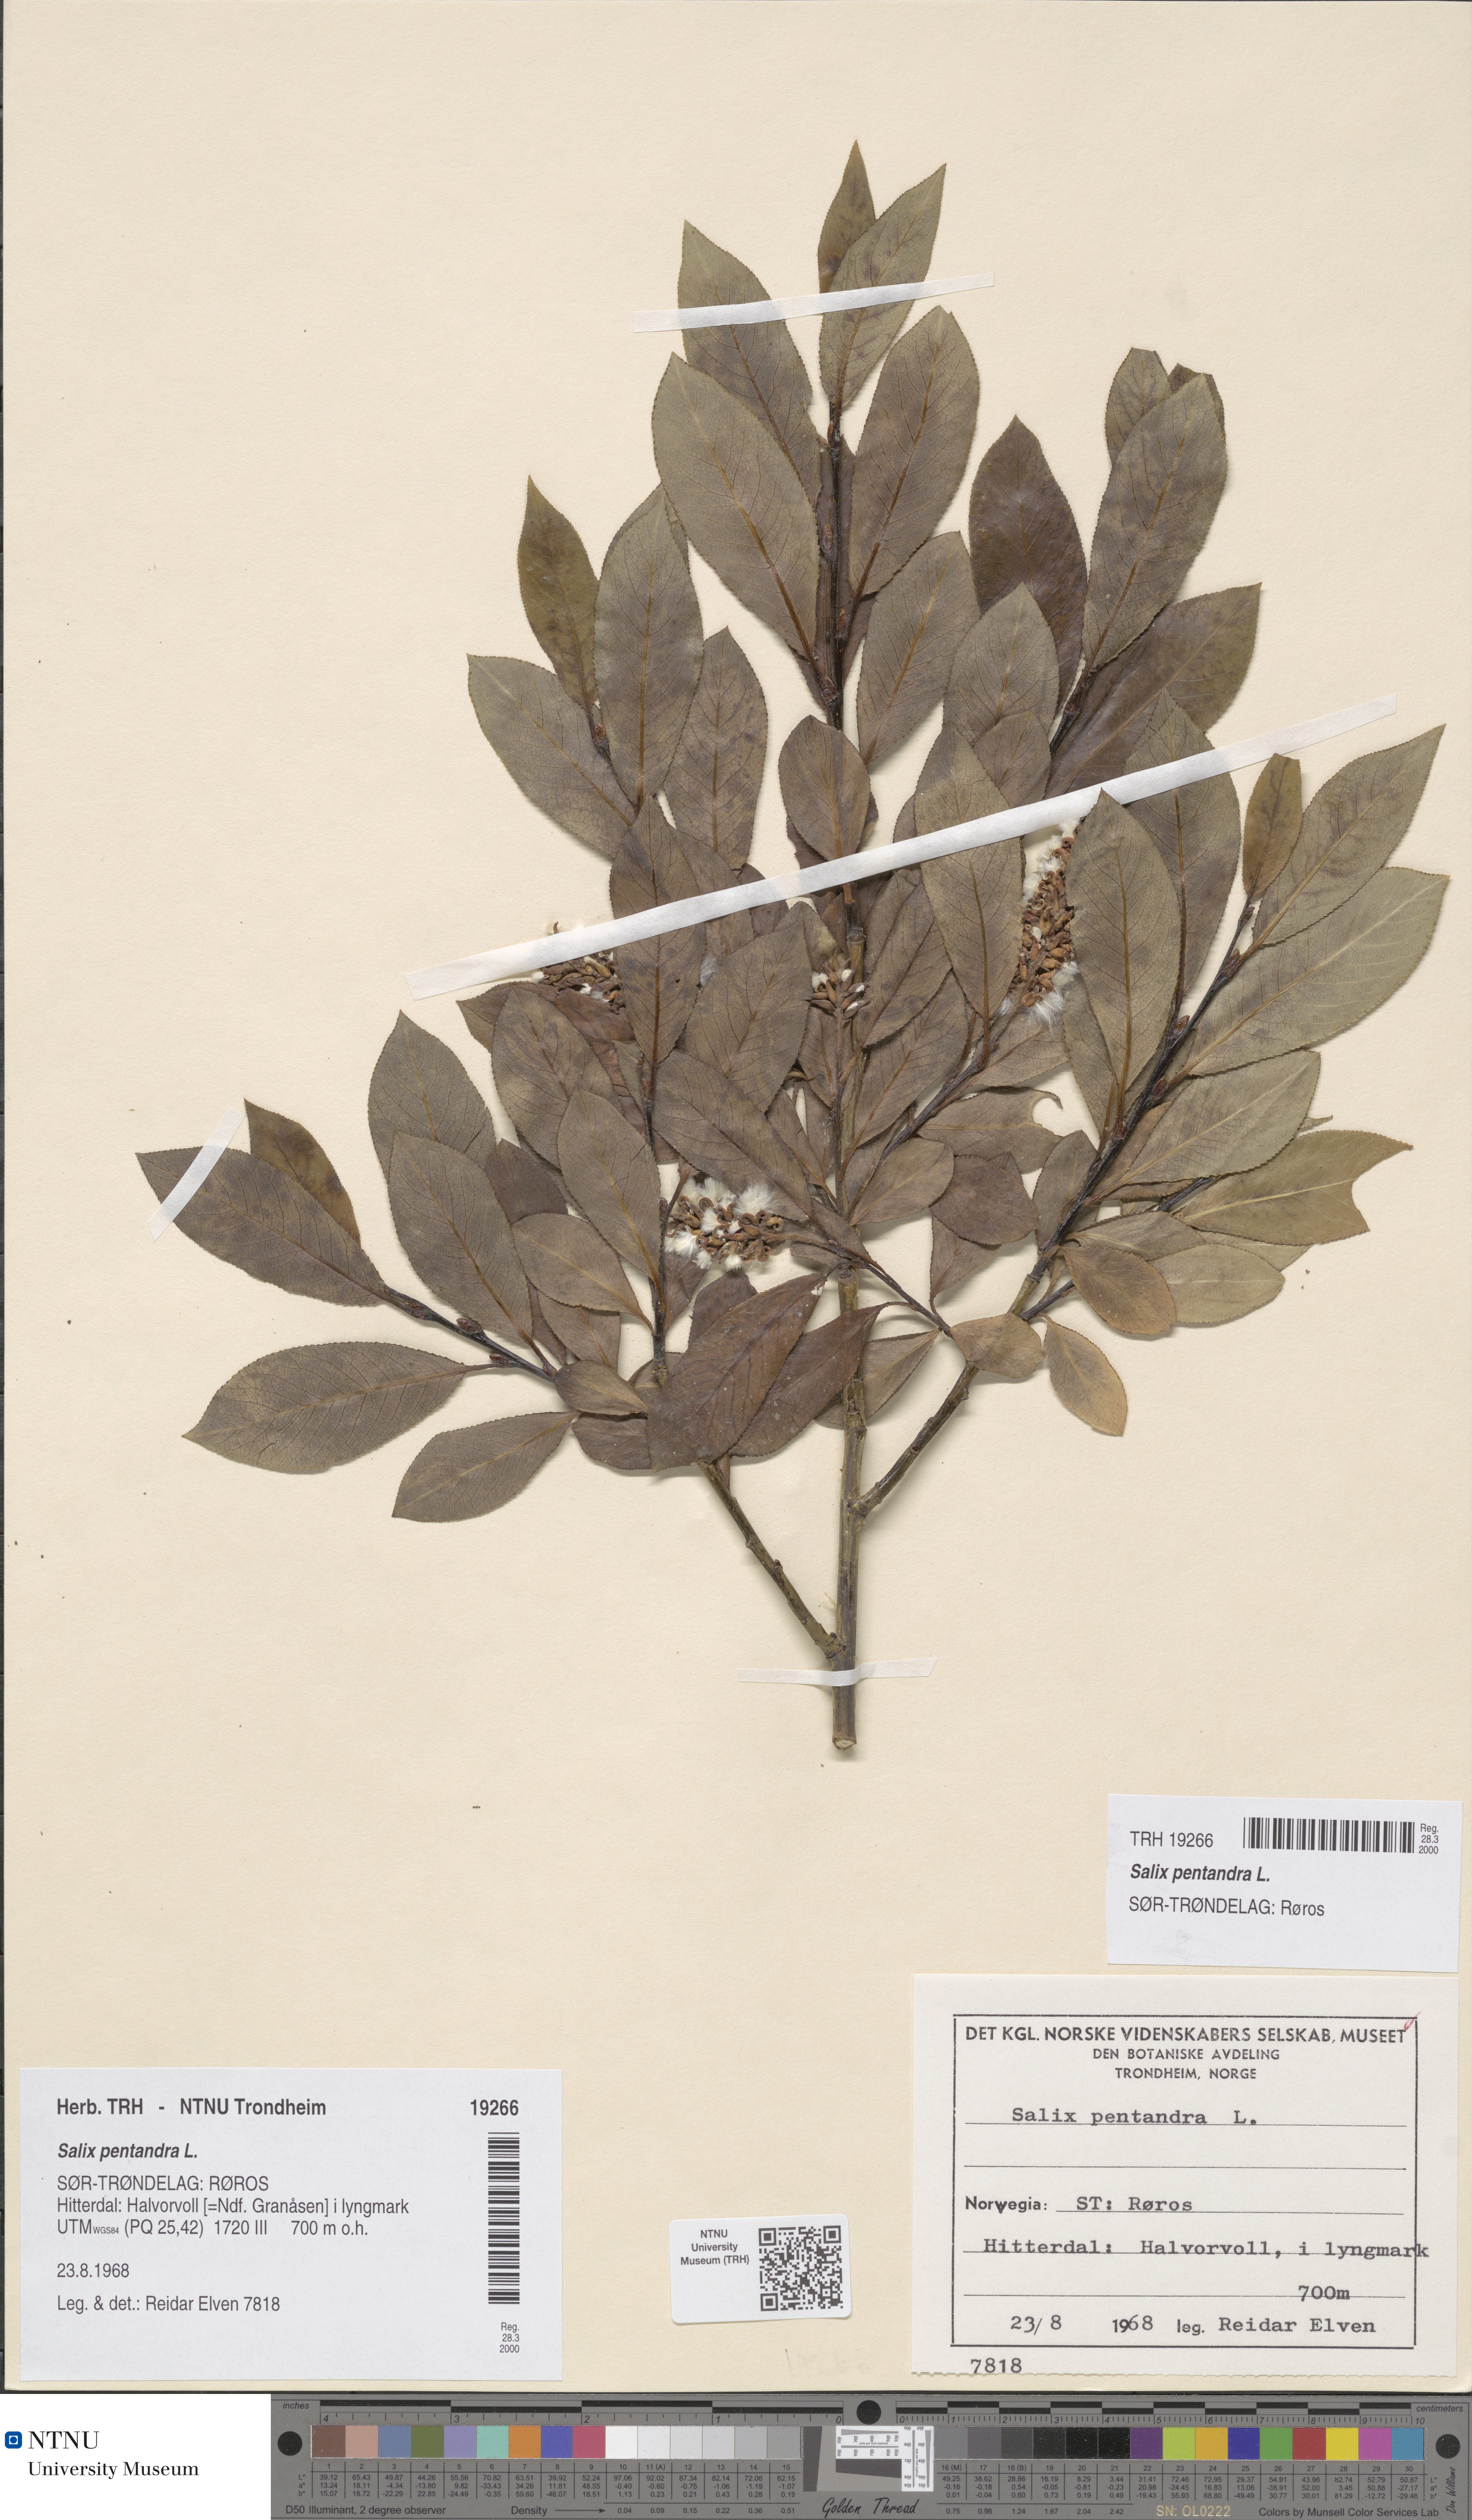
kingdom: Plantae
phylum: Tracheophyta
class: Magnoliopsida
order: Malpighiales
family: Salicaceae
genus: Salix
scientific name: Salix pentandra
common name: Bay willow
